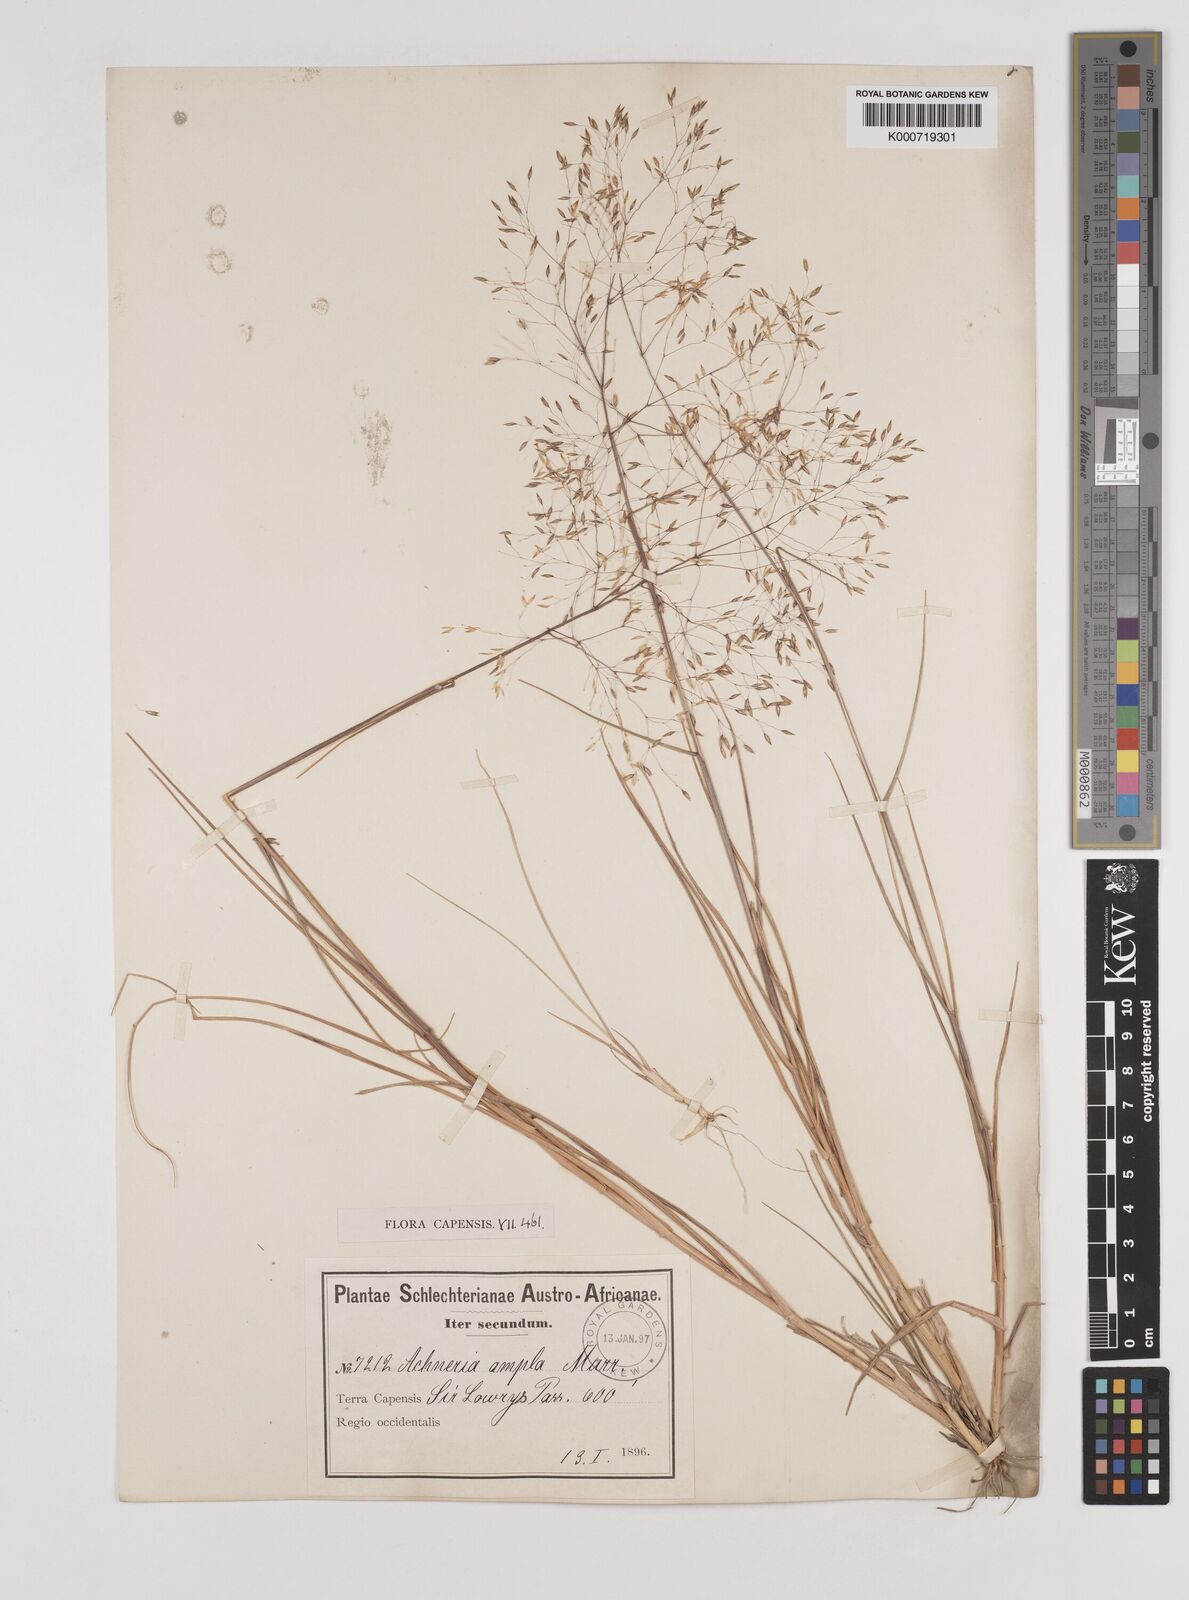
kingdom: Plantae
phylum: Tracheophyta
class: Liliopsida
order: Poales
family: Poaceae
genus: Pentameris
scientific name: Pentameris ampla
